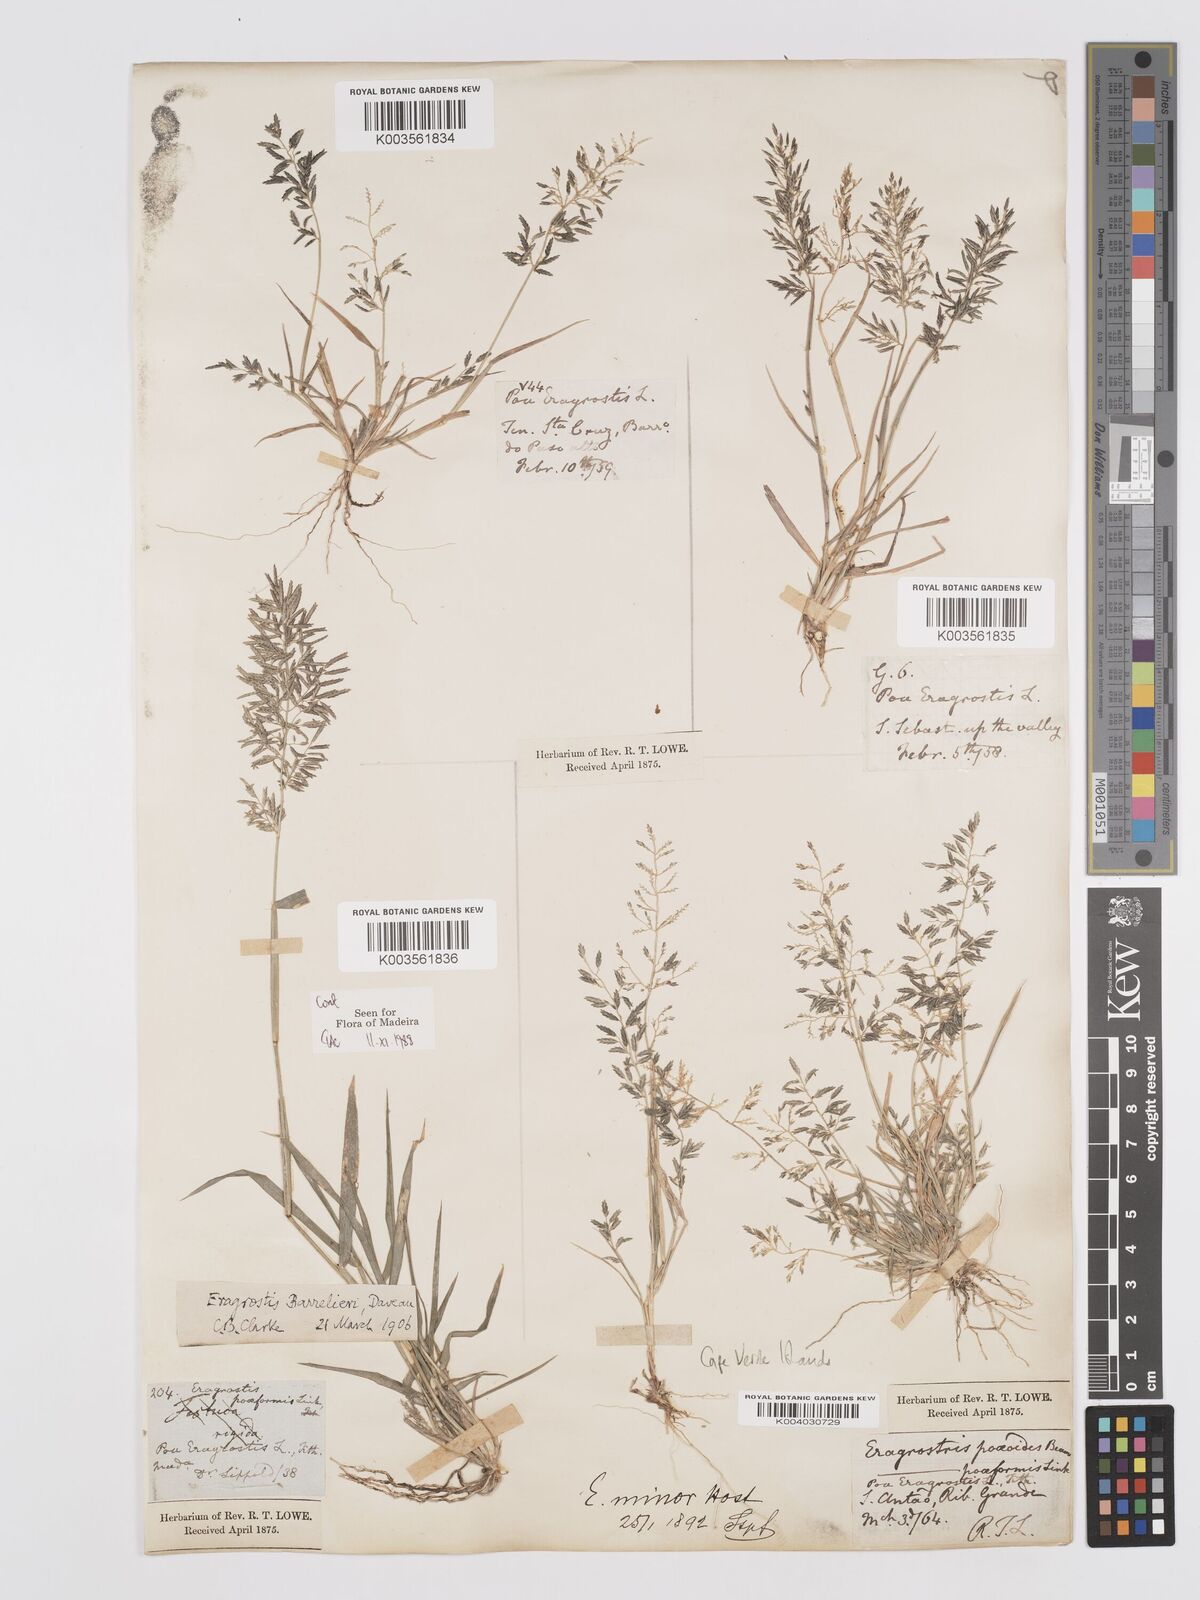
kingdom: Plantae
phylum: Tracheophyta
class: Liliopsida
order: Poales
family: Poaceae
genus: Eragrostis
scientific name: Eragrostis barrelieri
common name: Mediterranean lovegrass
